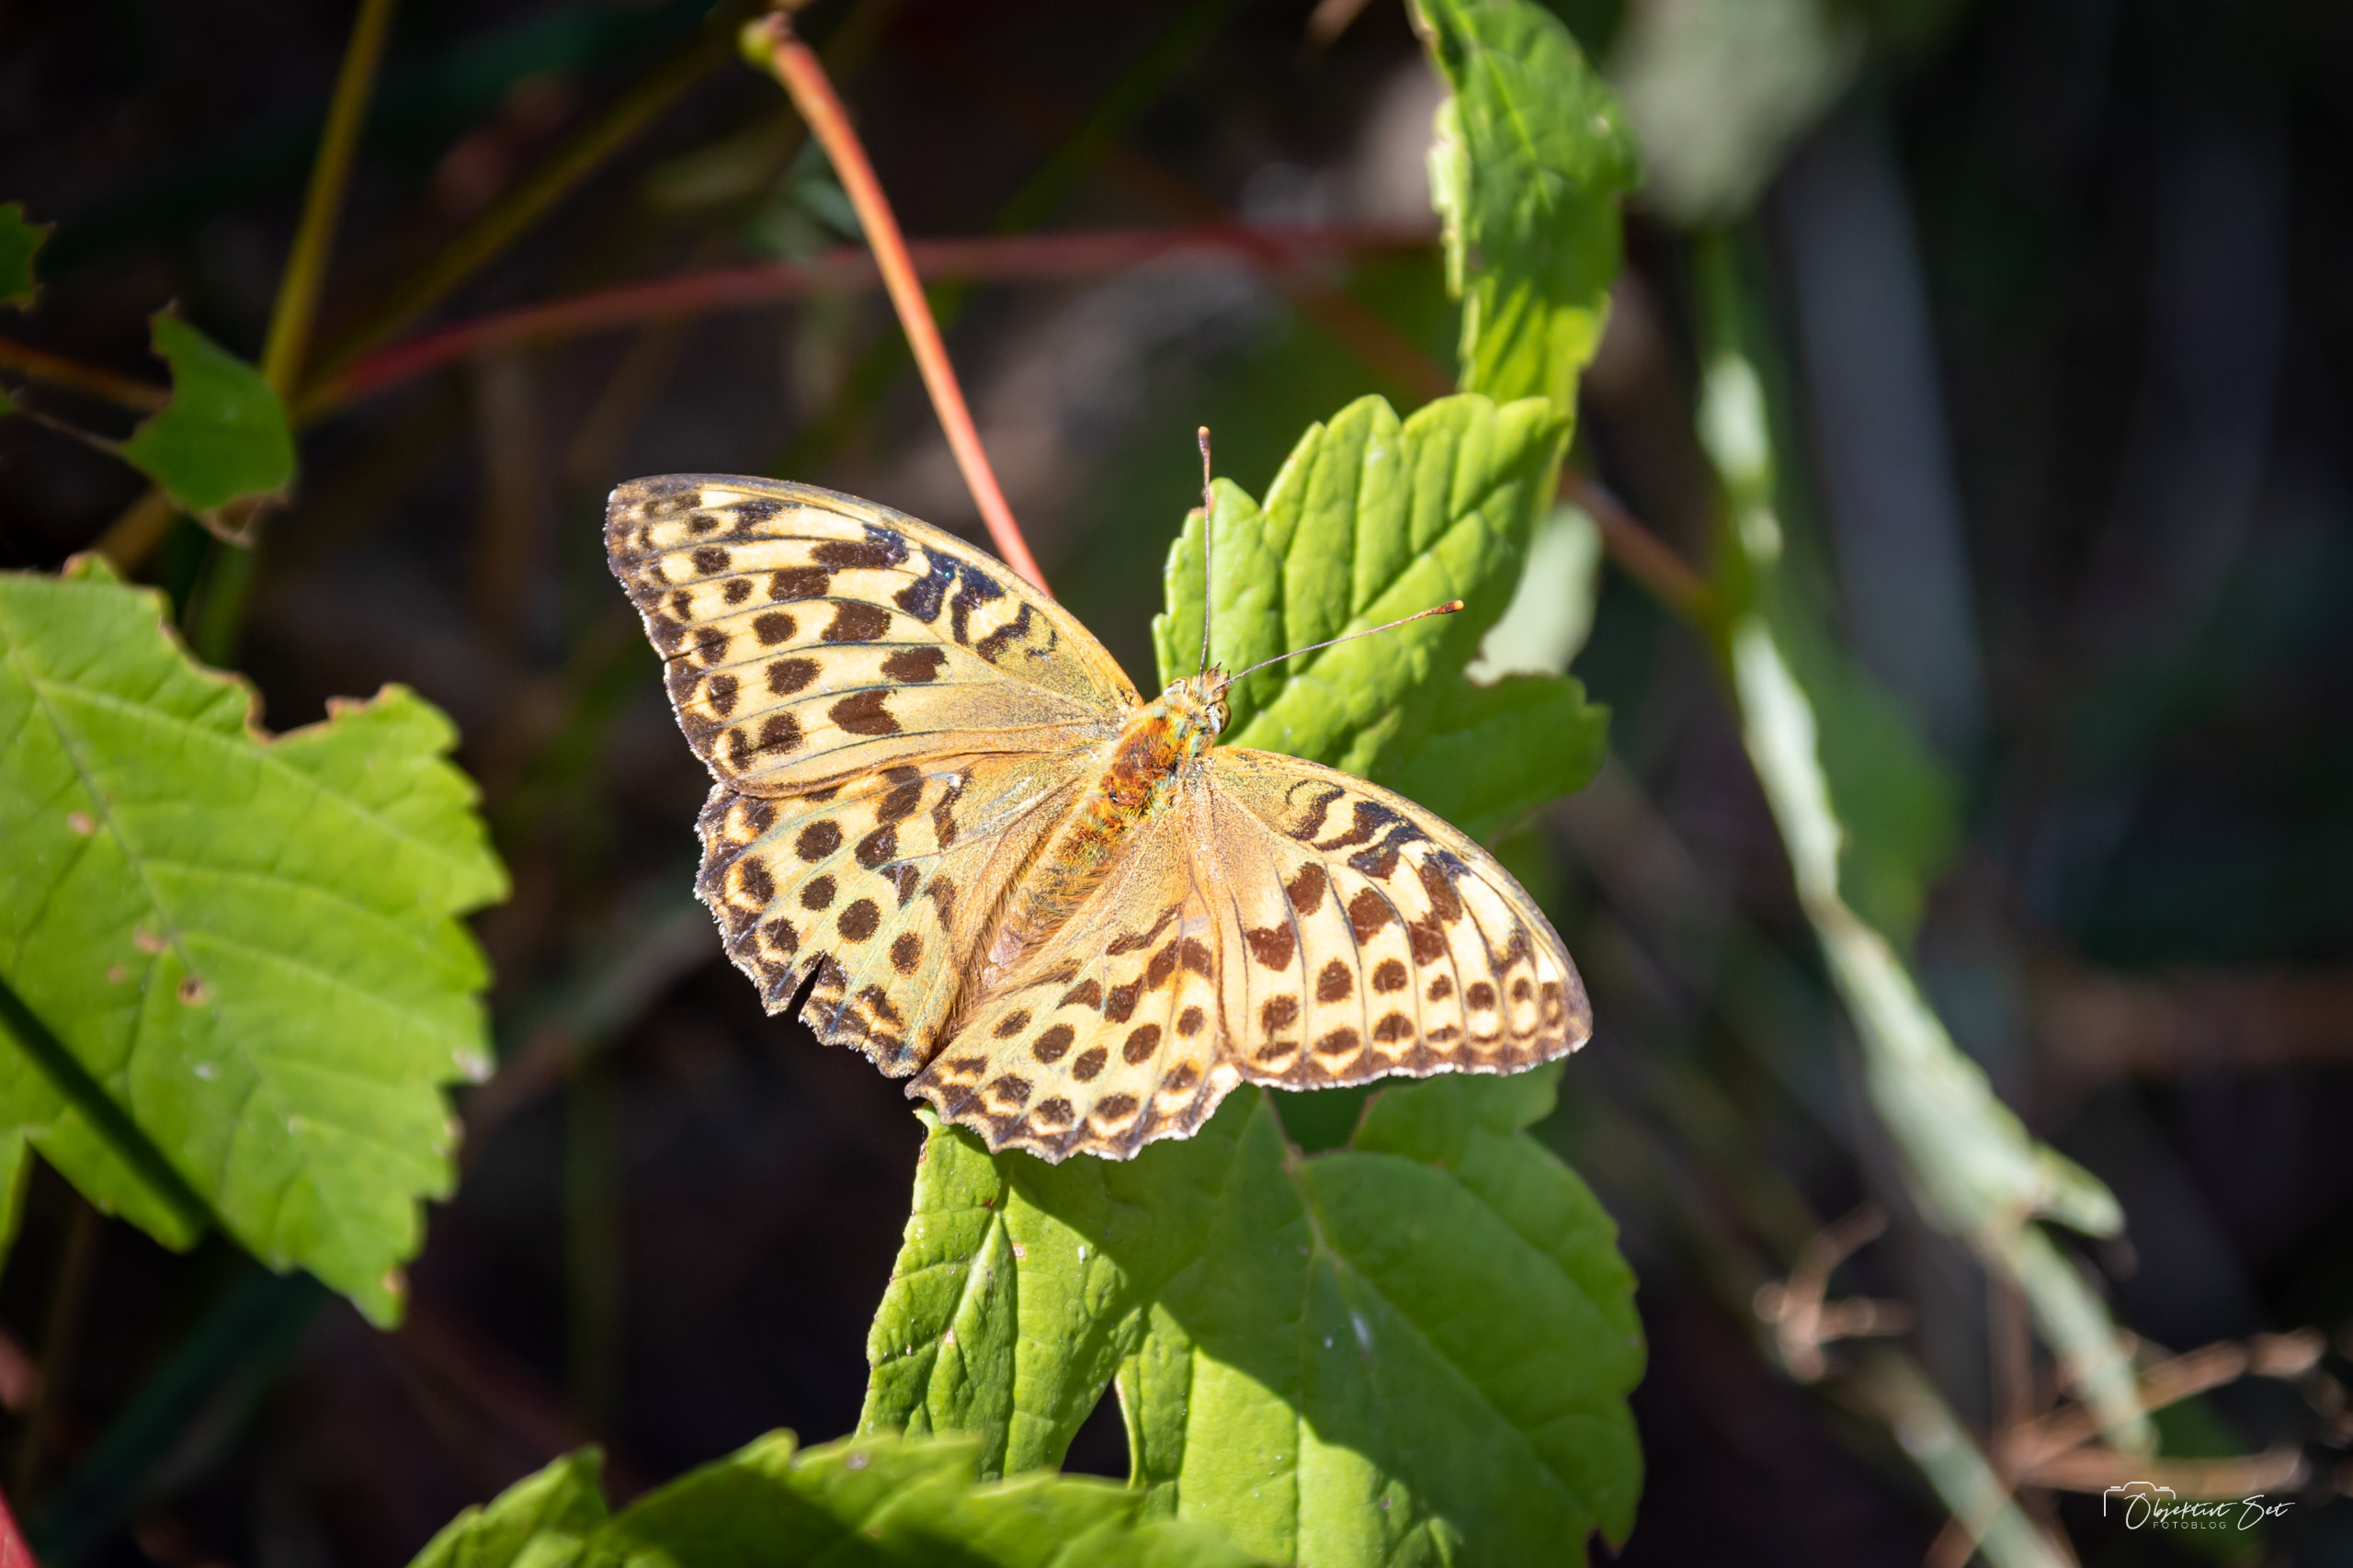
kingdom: Animalia
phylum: Arthropoda
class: Insecta
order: Lepidoptera
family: Nymphalidae
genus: Argynnis
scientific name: Argynnis paphia
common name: Kejserkåbe
